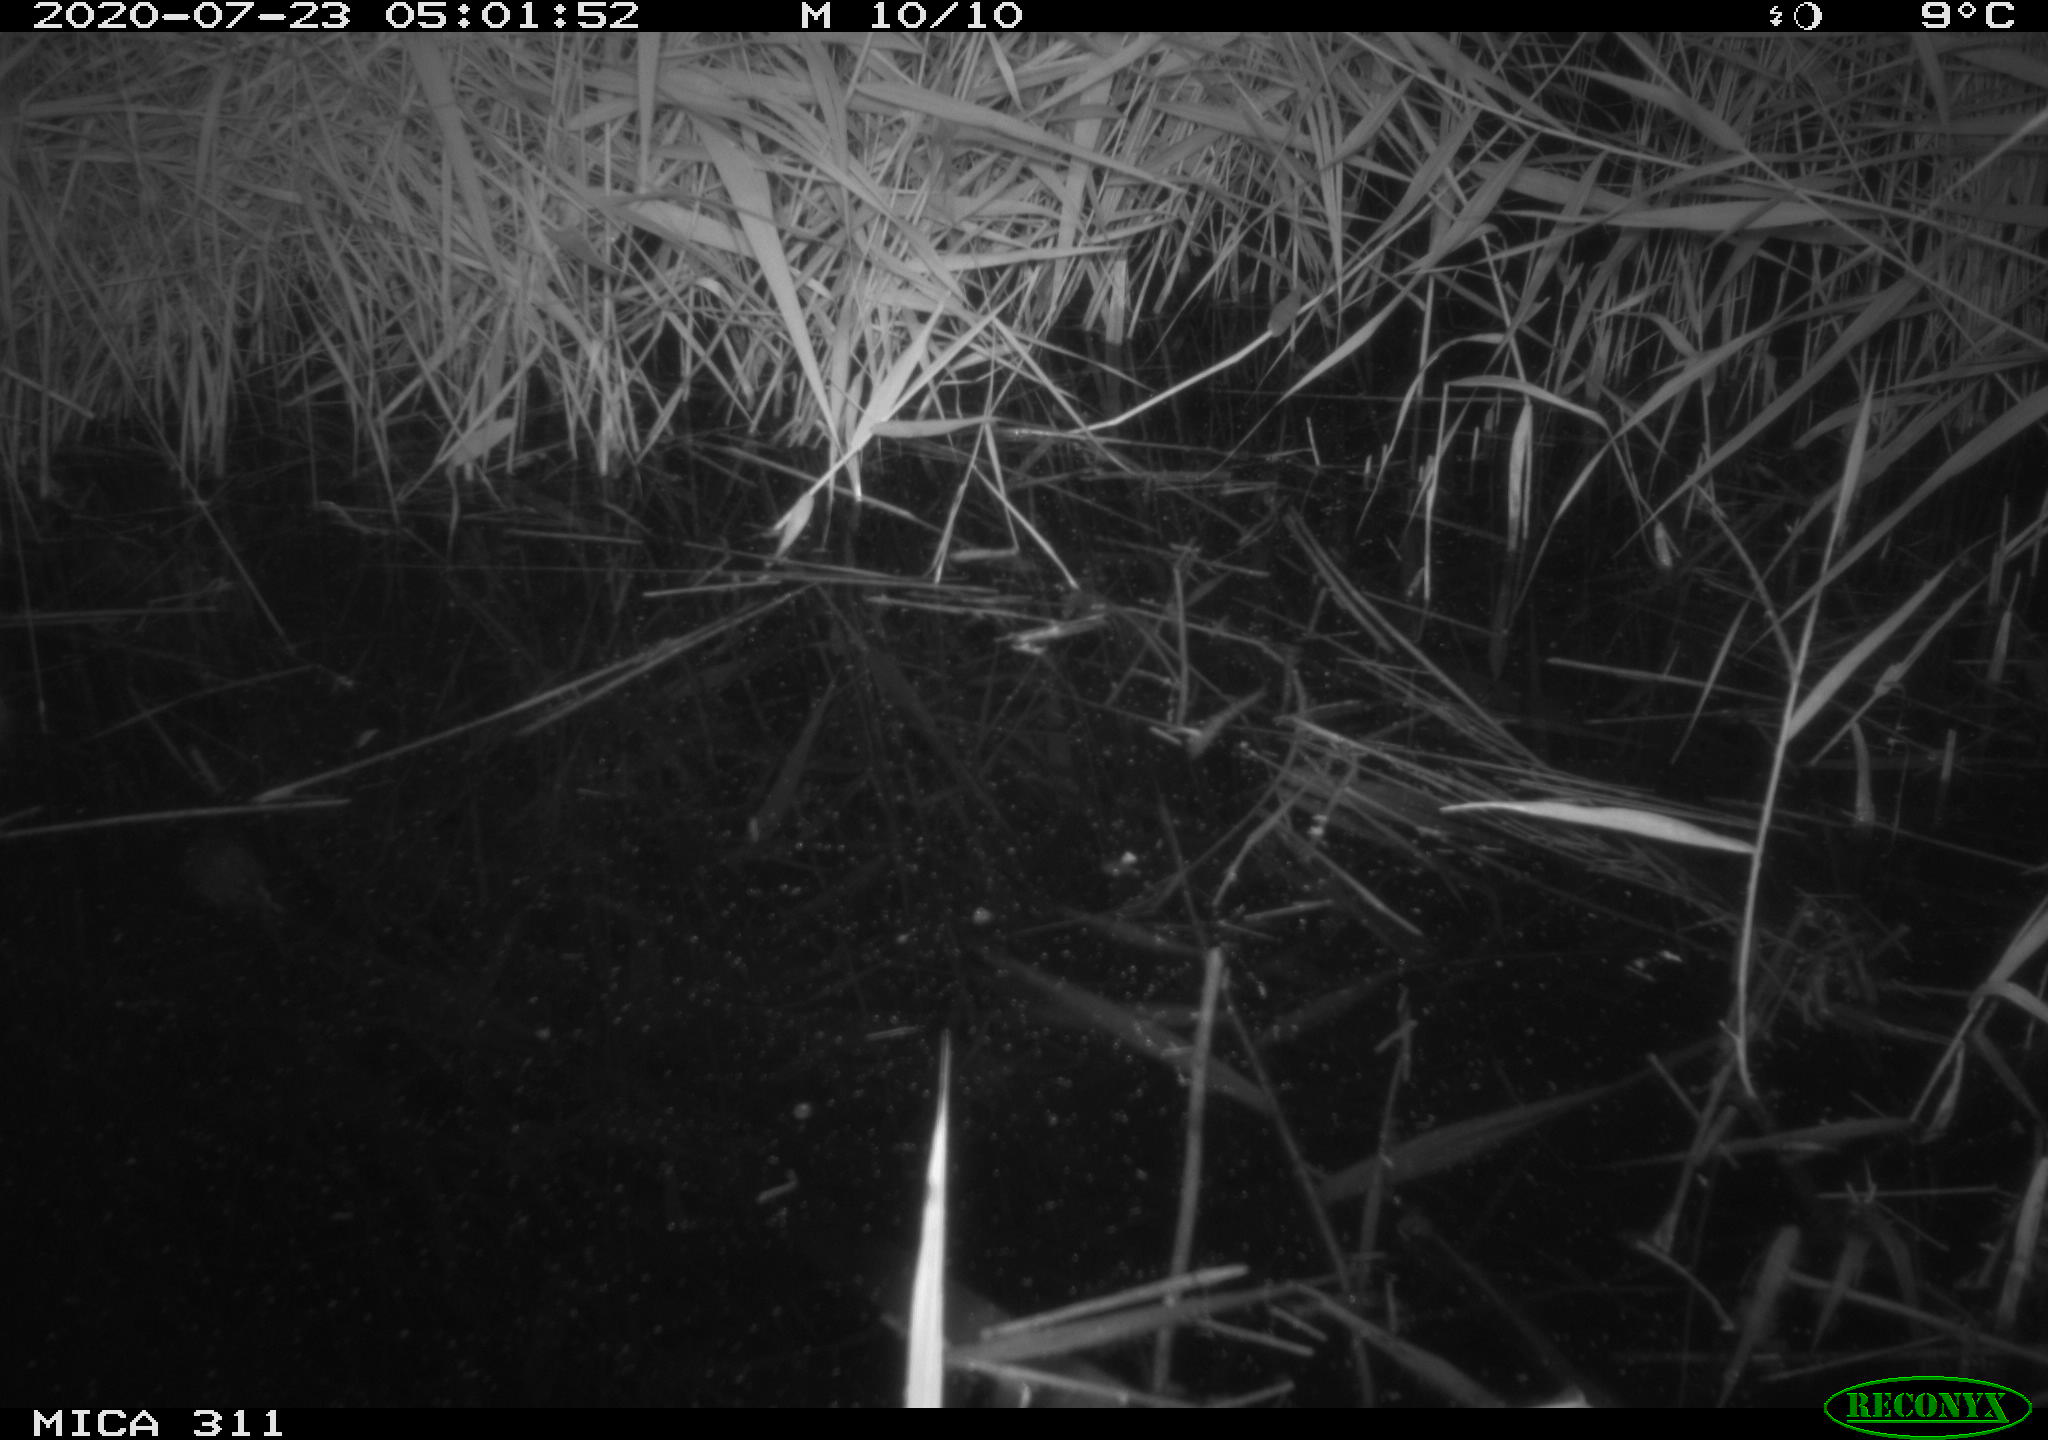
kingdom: Animalia
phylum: Chordata
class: Mammalia
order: Rodentia
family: Muridae
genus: Rattus
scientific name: Rattus norvegicus
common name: Brown rat
